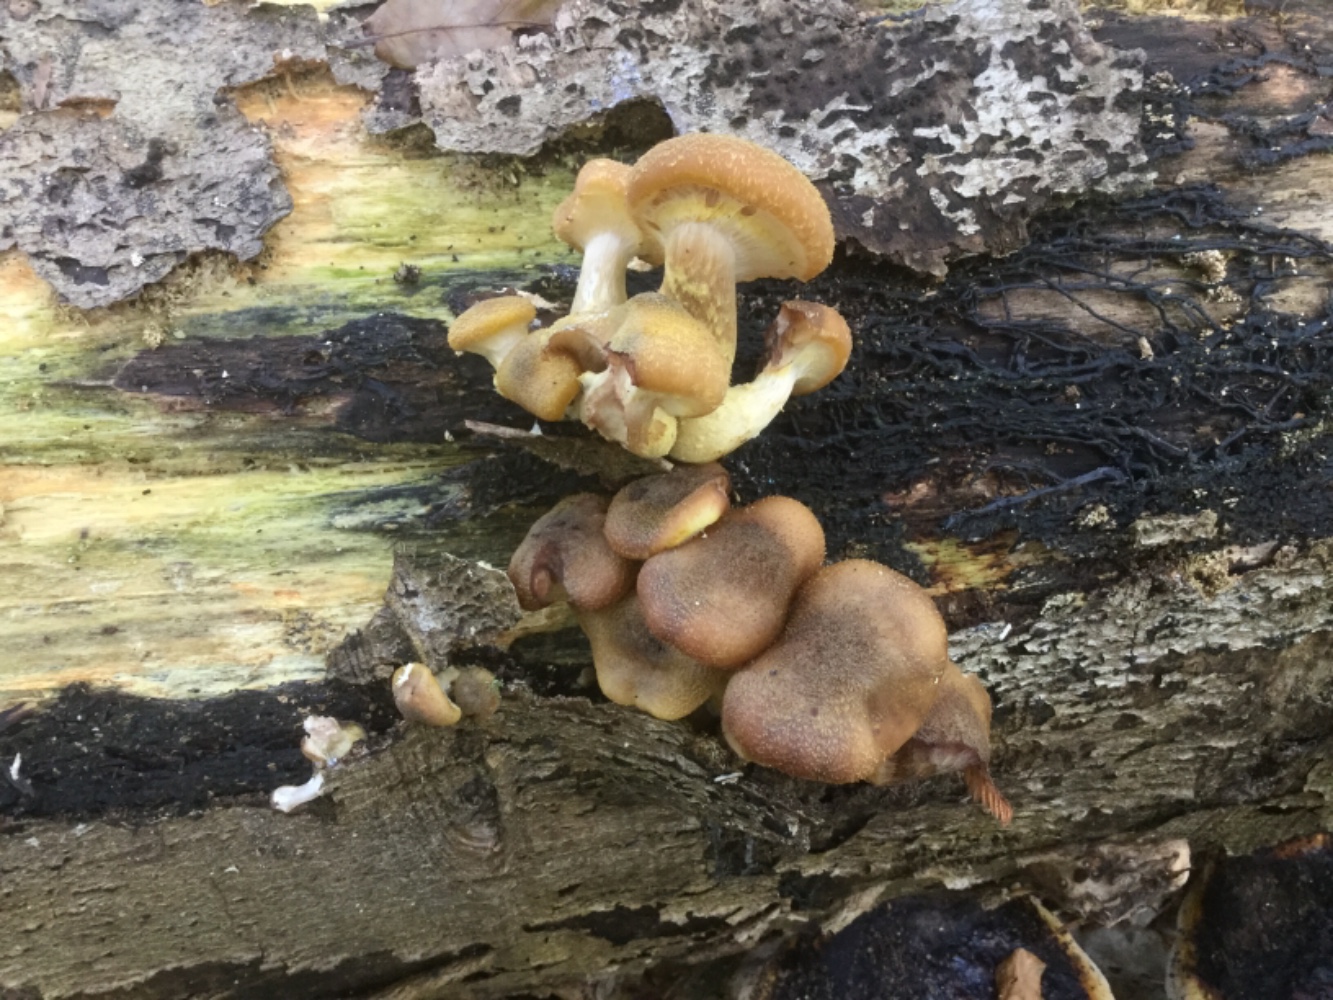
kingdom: Fungi
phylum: Basidiomycota
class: Agaricomycetes
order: Agaricales
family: Physalacriaceae
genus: Armillaria
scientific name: Armillaria lutea
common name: køllestokket honningsvamp
